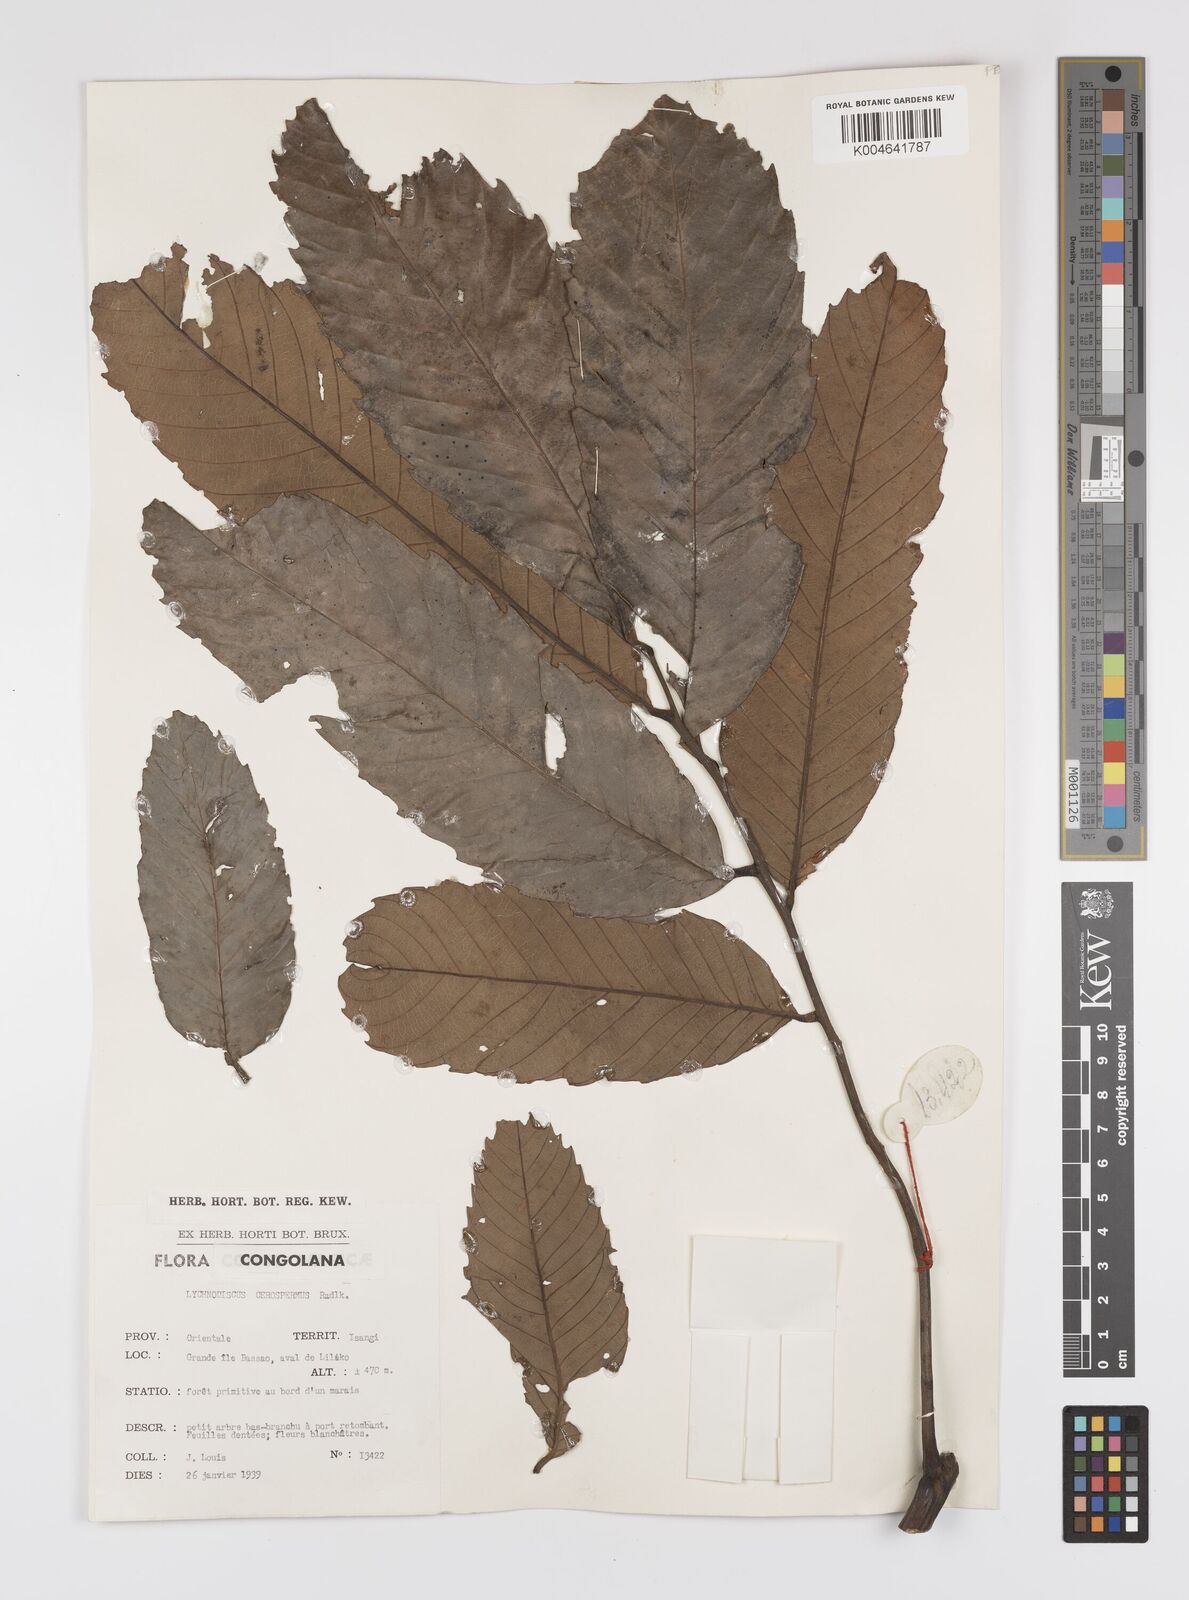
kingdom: Plantae
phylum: Tracheophyta
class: Magnoliopsida
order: Sapindales
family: Sapindaceae
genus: Lychnodiscus
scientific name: Lychnodiscus cerospermus
